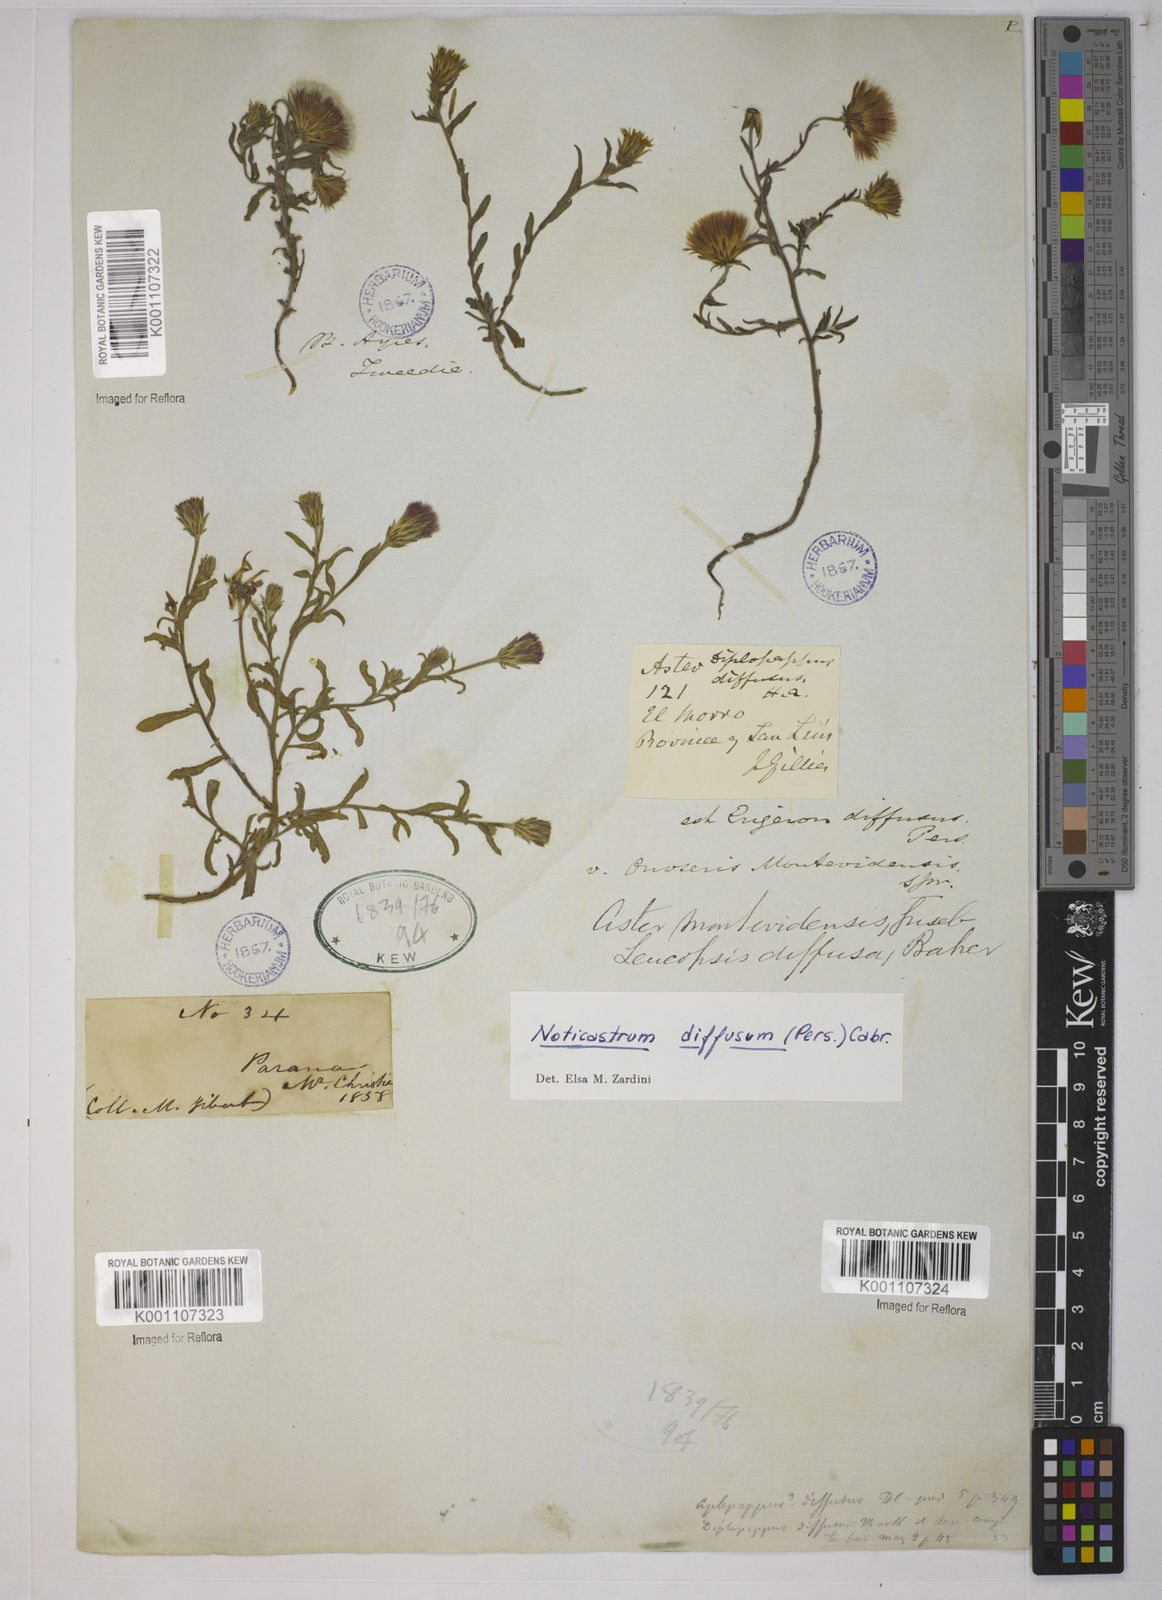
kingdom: Plantae
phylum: Tracheophyta
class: Magnoliopsida
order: Asterales
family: Asteraceae
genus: Noticastrum
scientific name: Noticastrum diffusum
